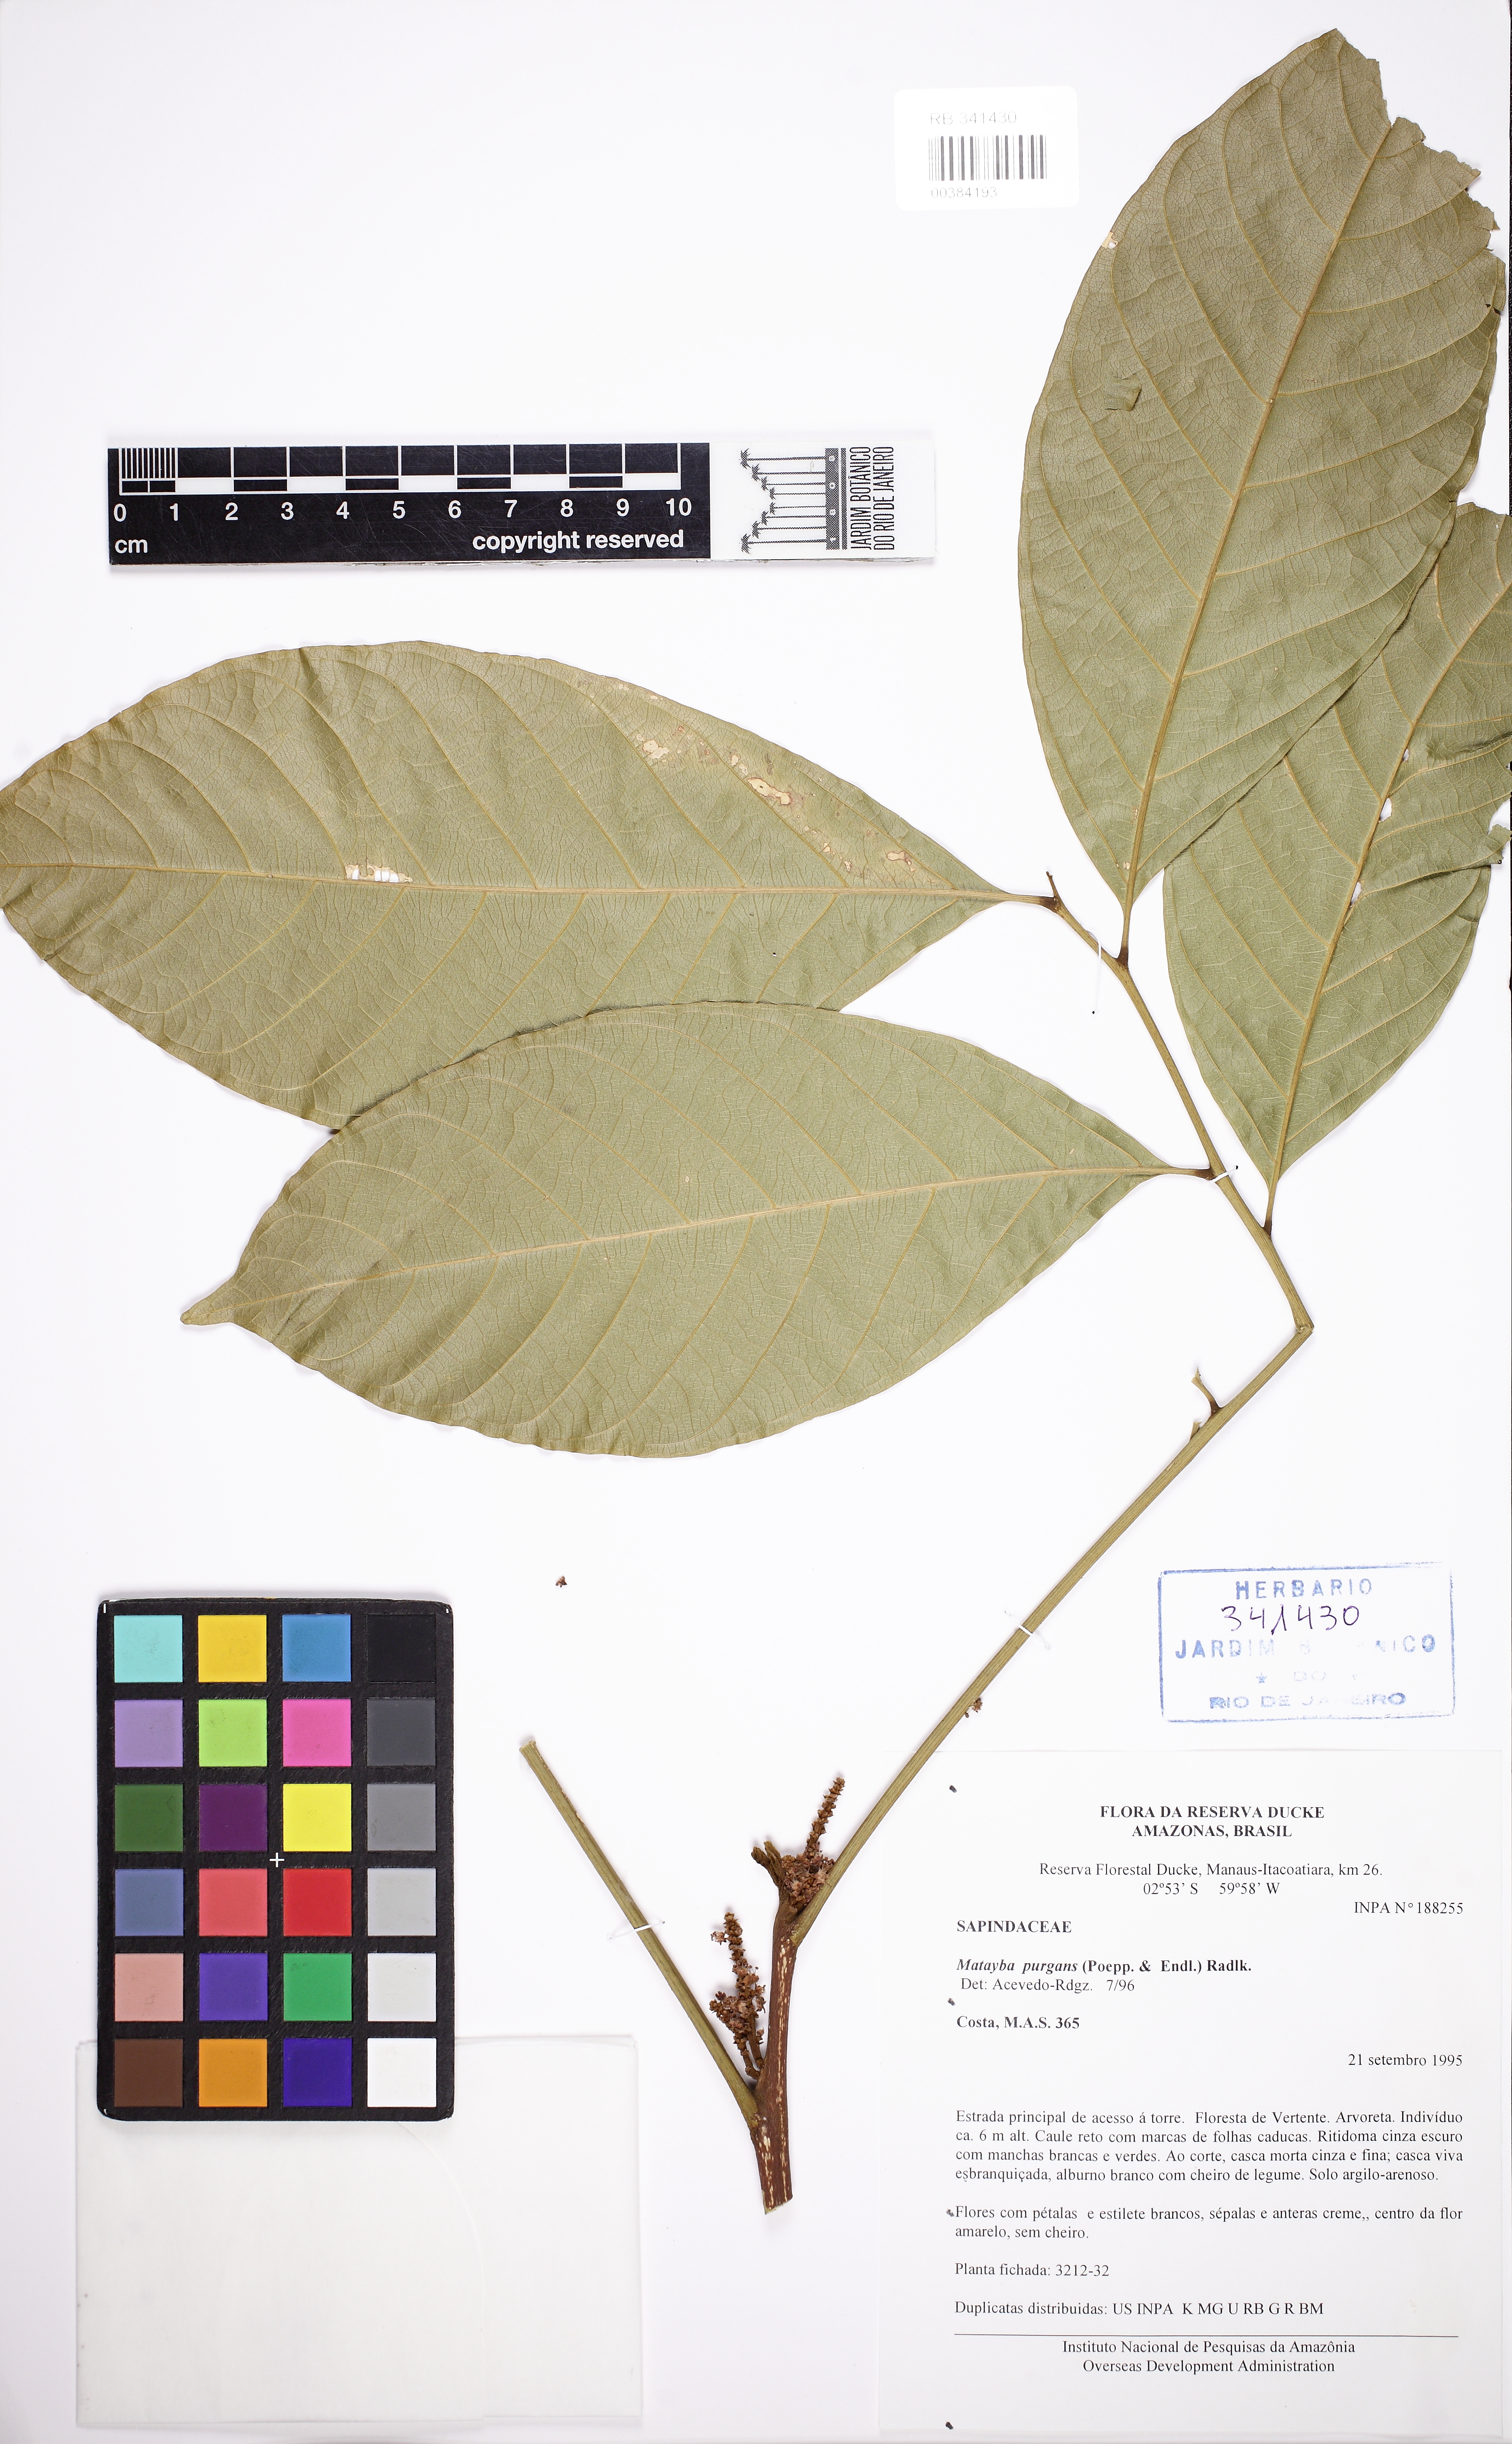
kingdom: Plantae
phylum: Tracheophyta
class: Magnoliopsida
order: Sapindales
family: Sapindaceae
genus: Matayba
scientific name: Matayba purgans
